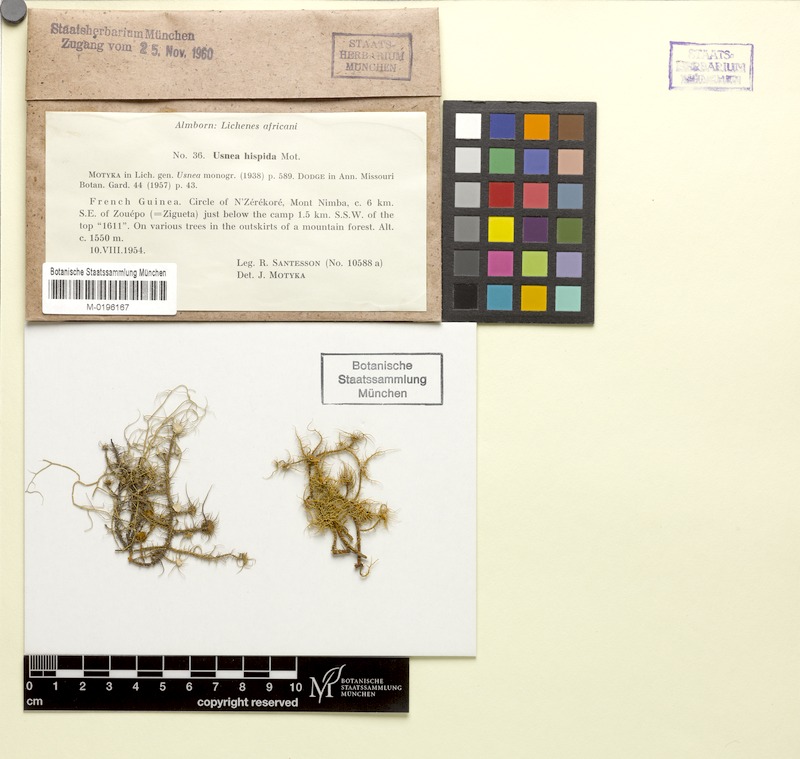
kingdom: Fungi
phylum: Ascomycota
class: Lecanoromycetes
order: Lecanorales
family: Parmeliaceae
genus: Usnea
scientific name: Usnea hispida
